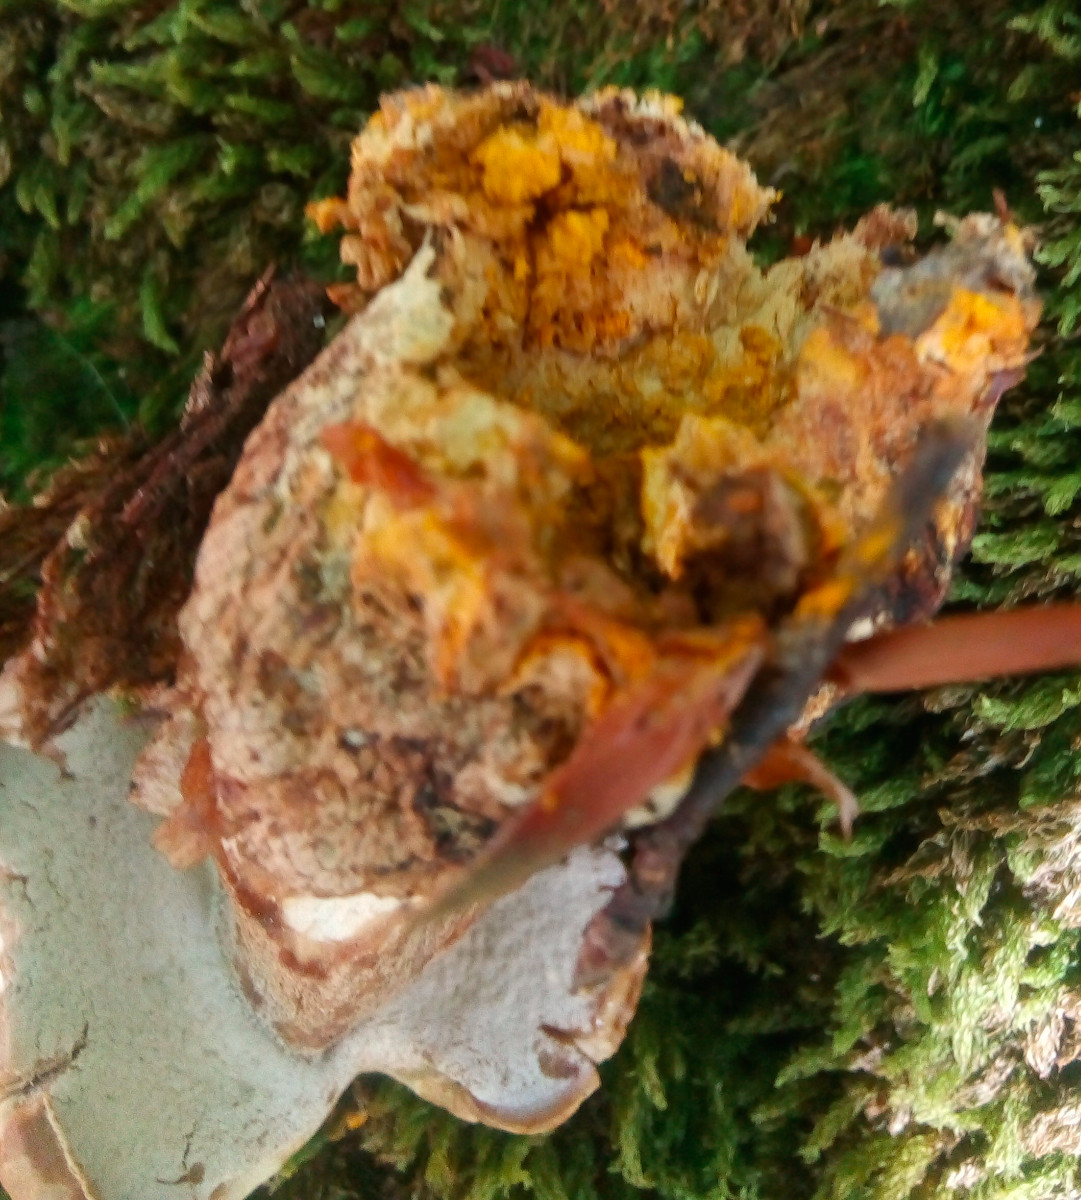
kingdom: Fungi
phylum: Ascomycota
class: Sordariomycetes
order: Hypocreales
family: Hypocreaceae
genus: Hypomyces
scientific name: Hypomyces chrysospermus
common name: gulskimmel-snylteskorpe
